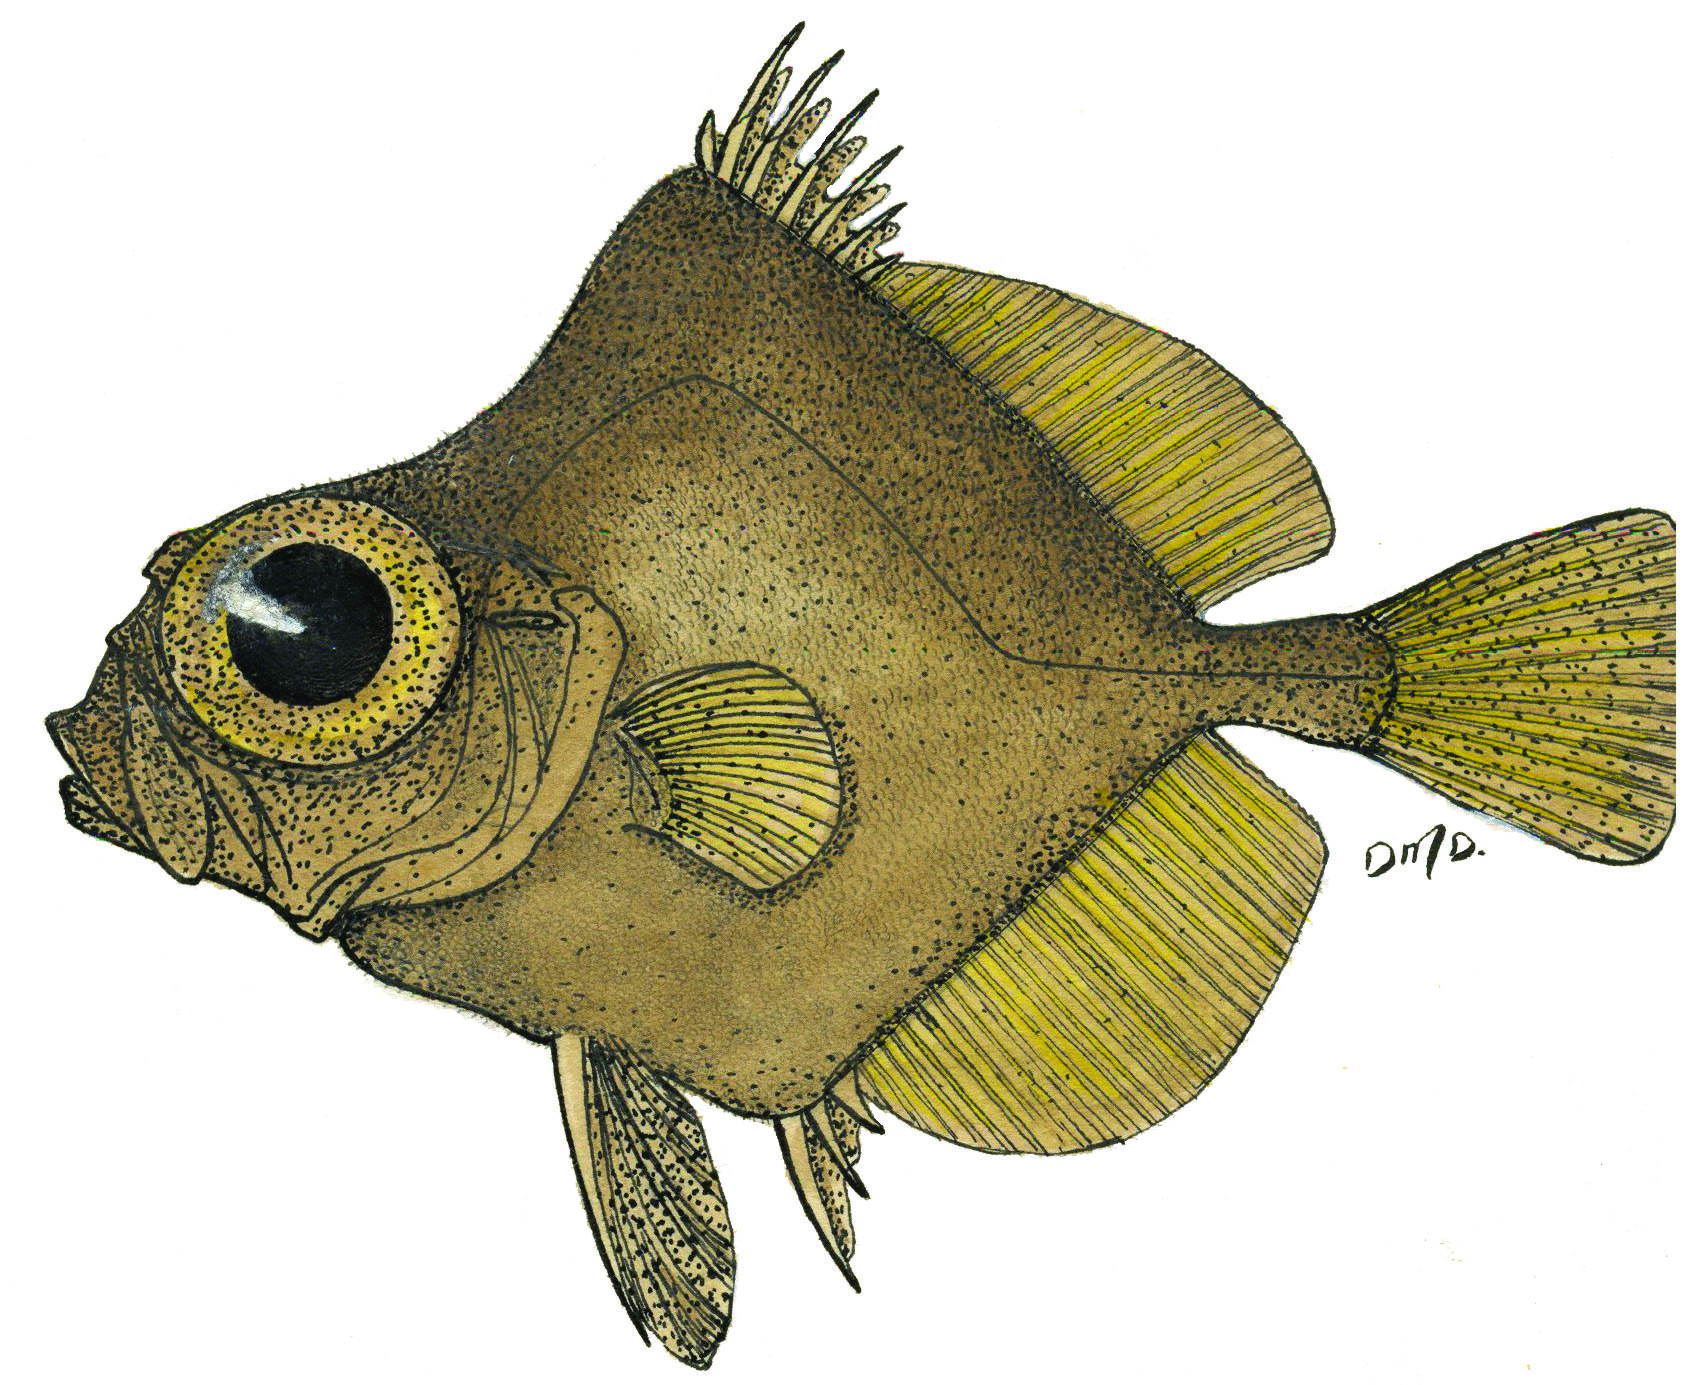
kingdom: Animalia
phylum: Chordata
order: Zeiformes
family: Oreosomatidae
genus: Oreosoma
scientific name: Oreosoma atlanticum
